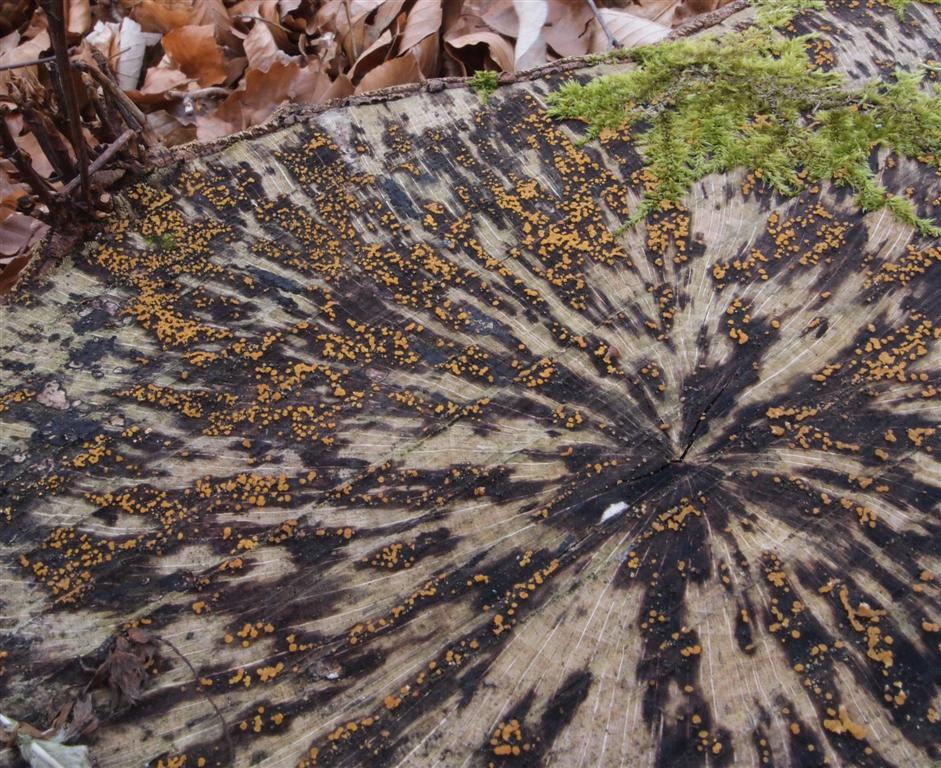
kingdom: Fungi
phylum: Ascomycota
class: Leotiomycetes
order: Helotiales
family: Helotiaceae
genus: Bispora
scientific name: Bispora pallescens
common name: måtte-snitskive
